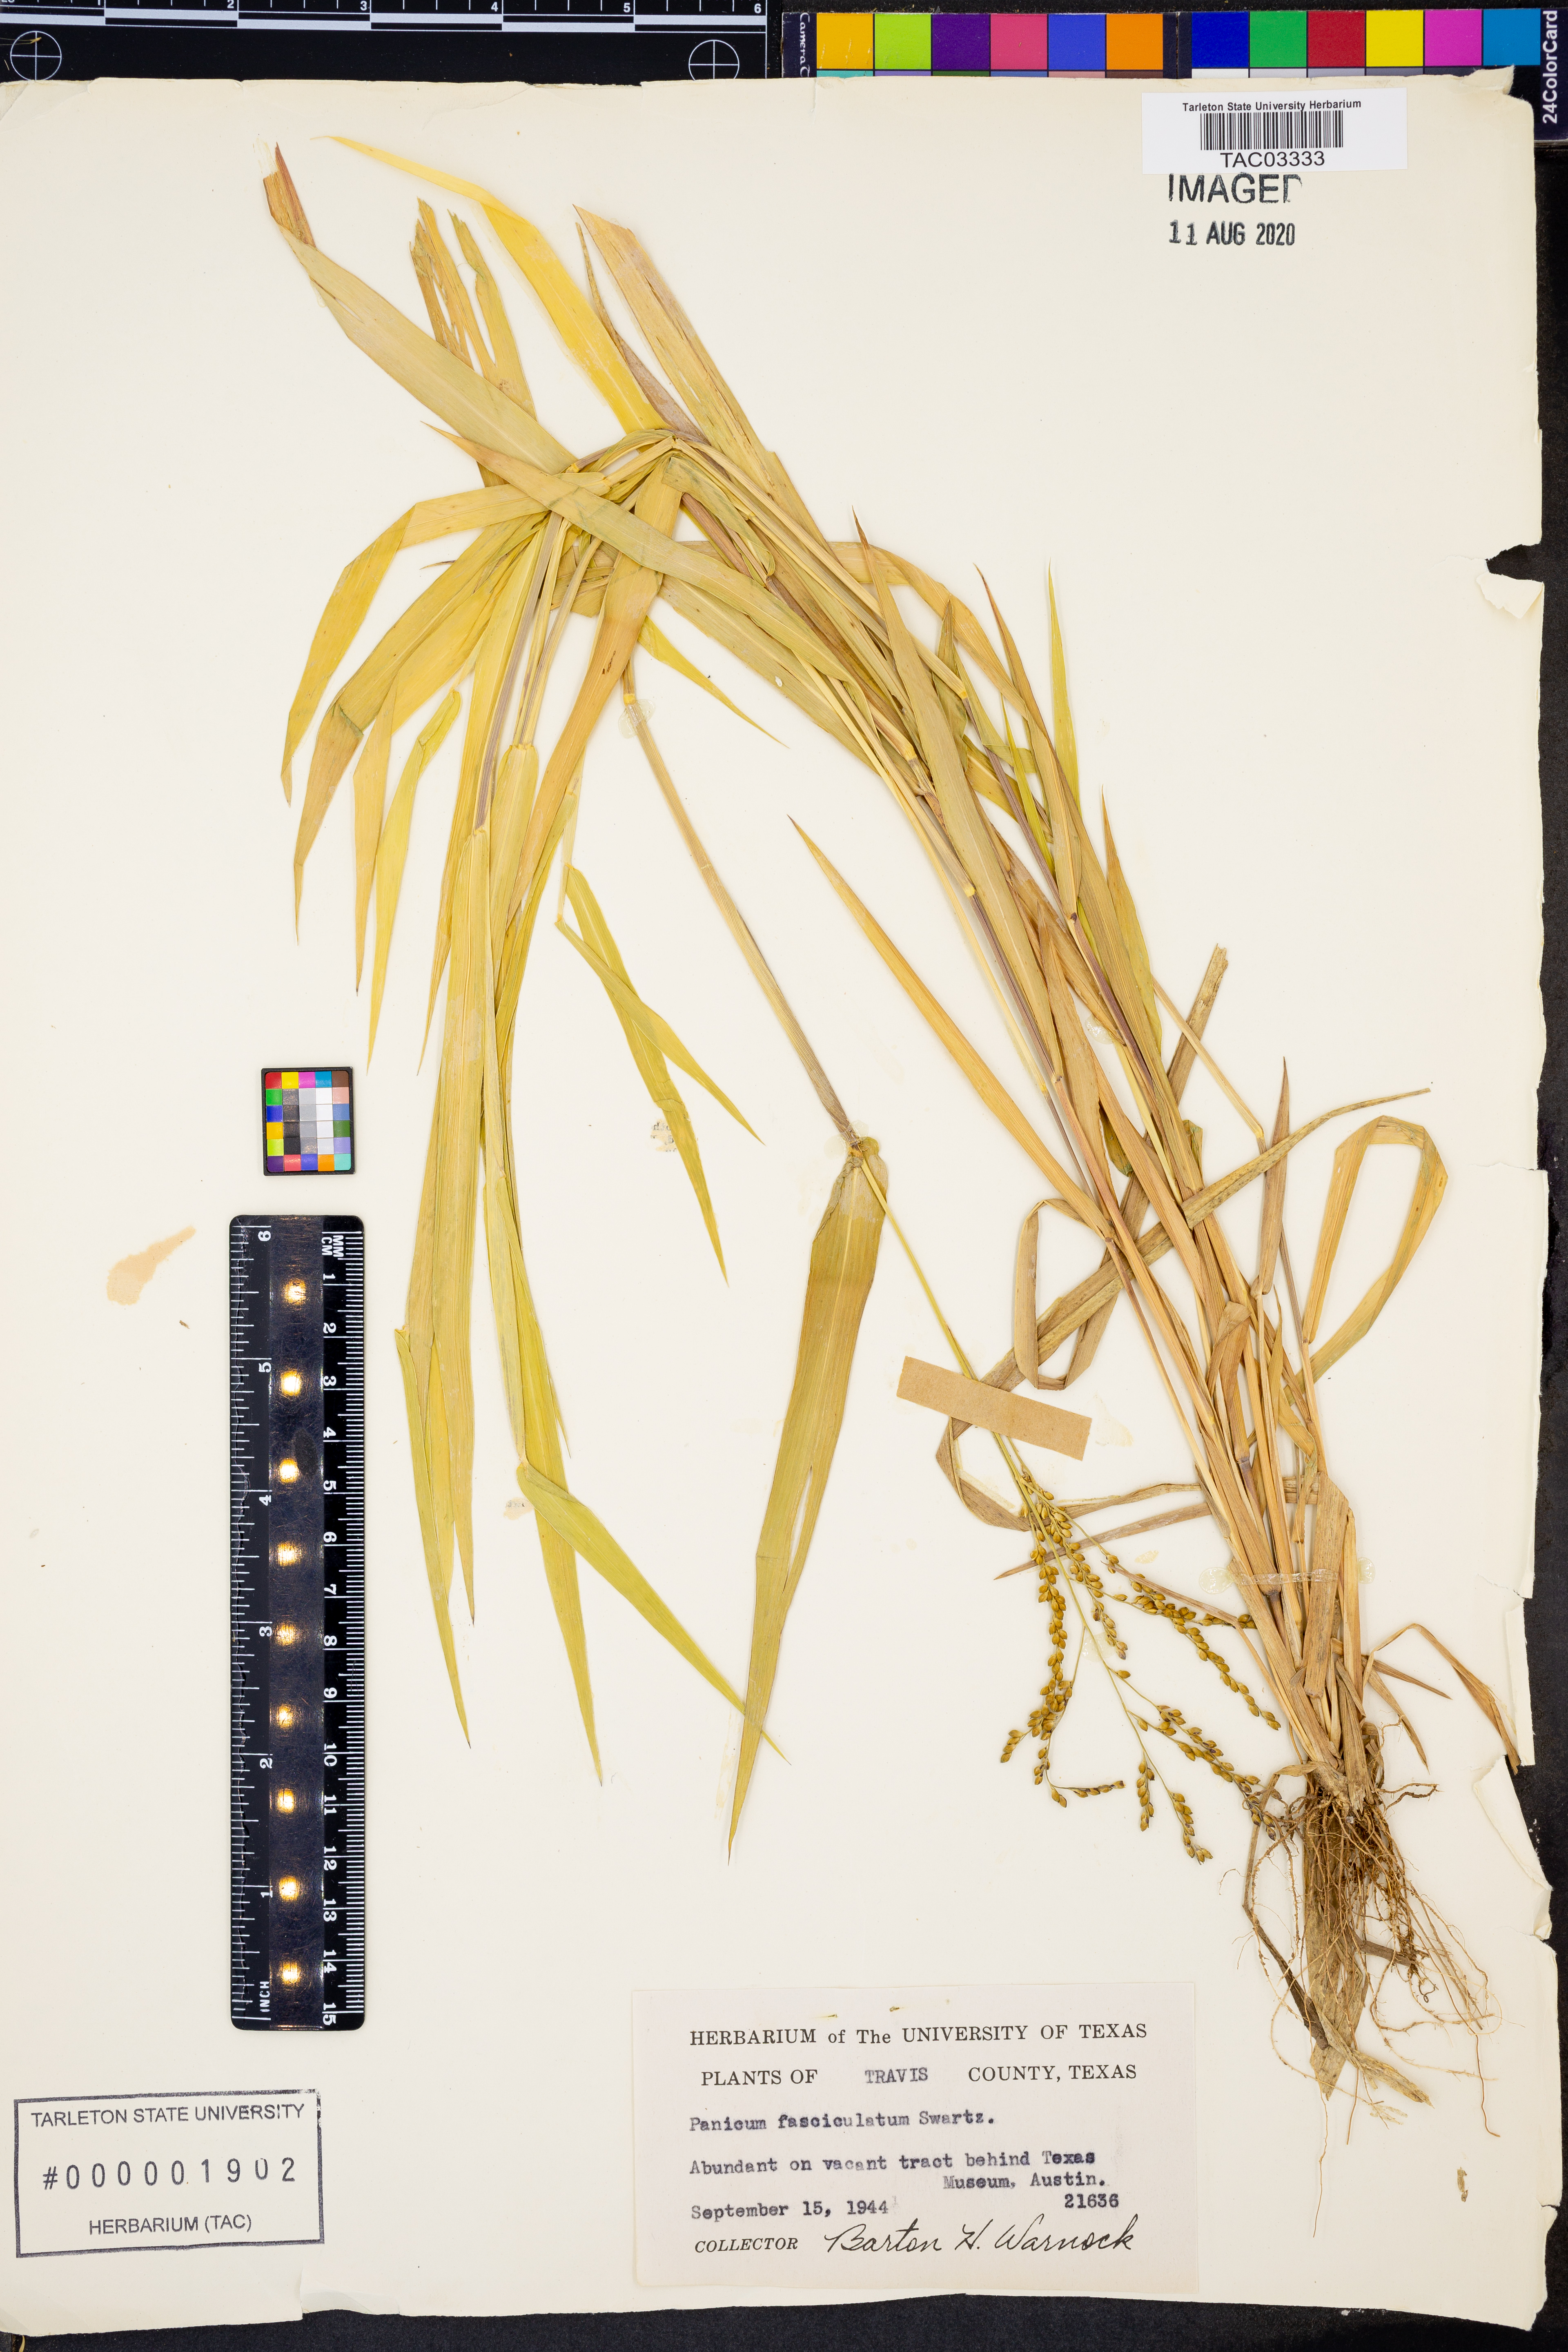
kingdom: Plantae
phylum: Tracheophyta
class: Liliopsida
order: Poales
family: Poaceae
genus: Urochloa
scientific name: Urochloa fusca
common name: Browntop signal grass
